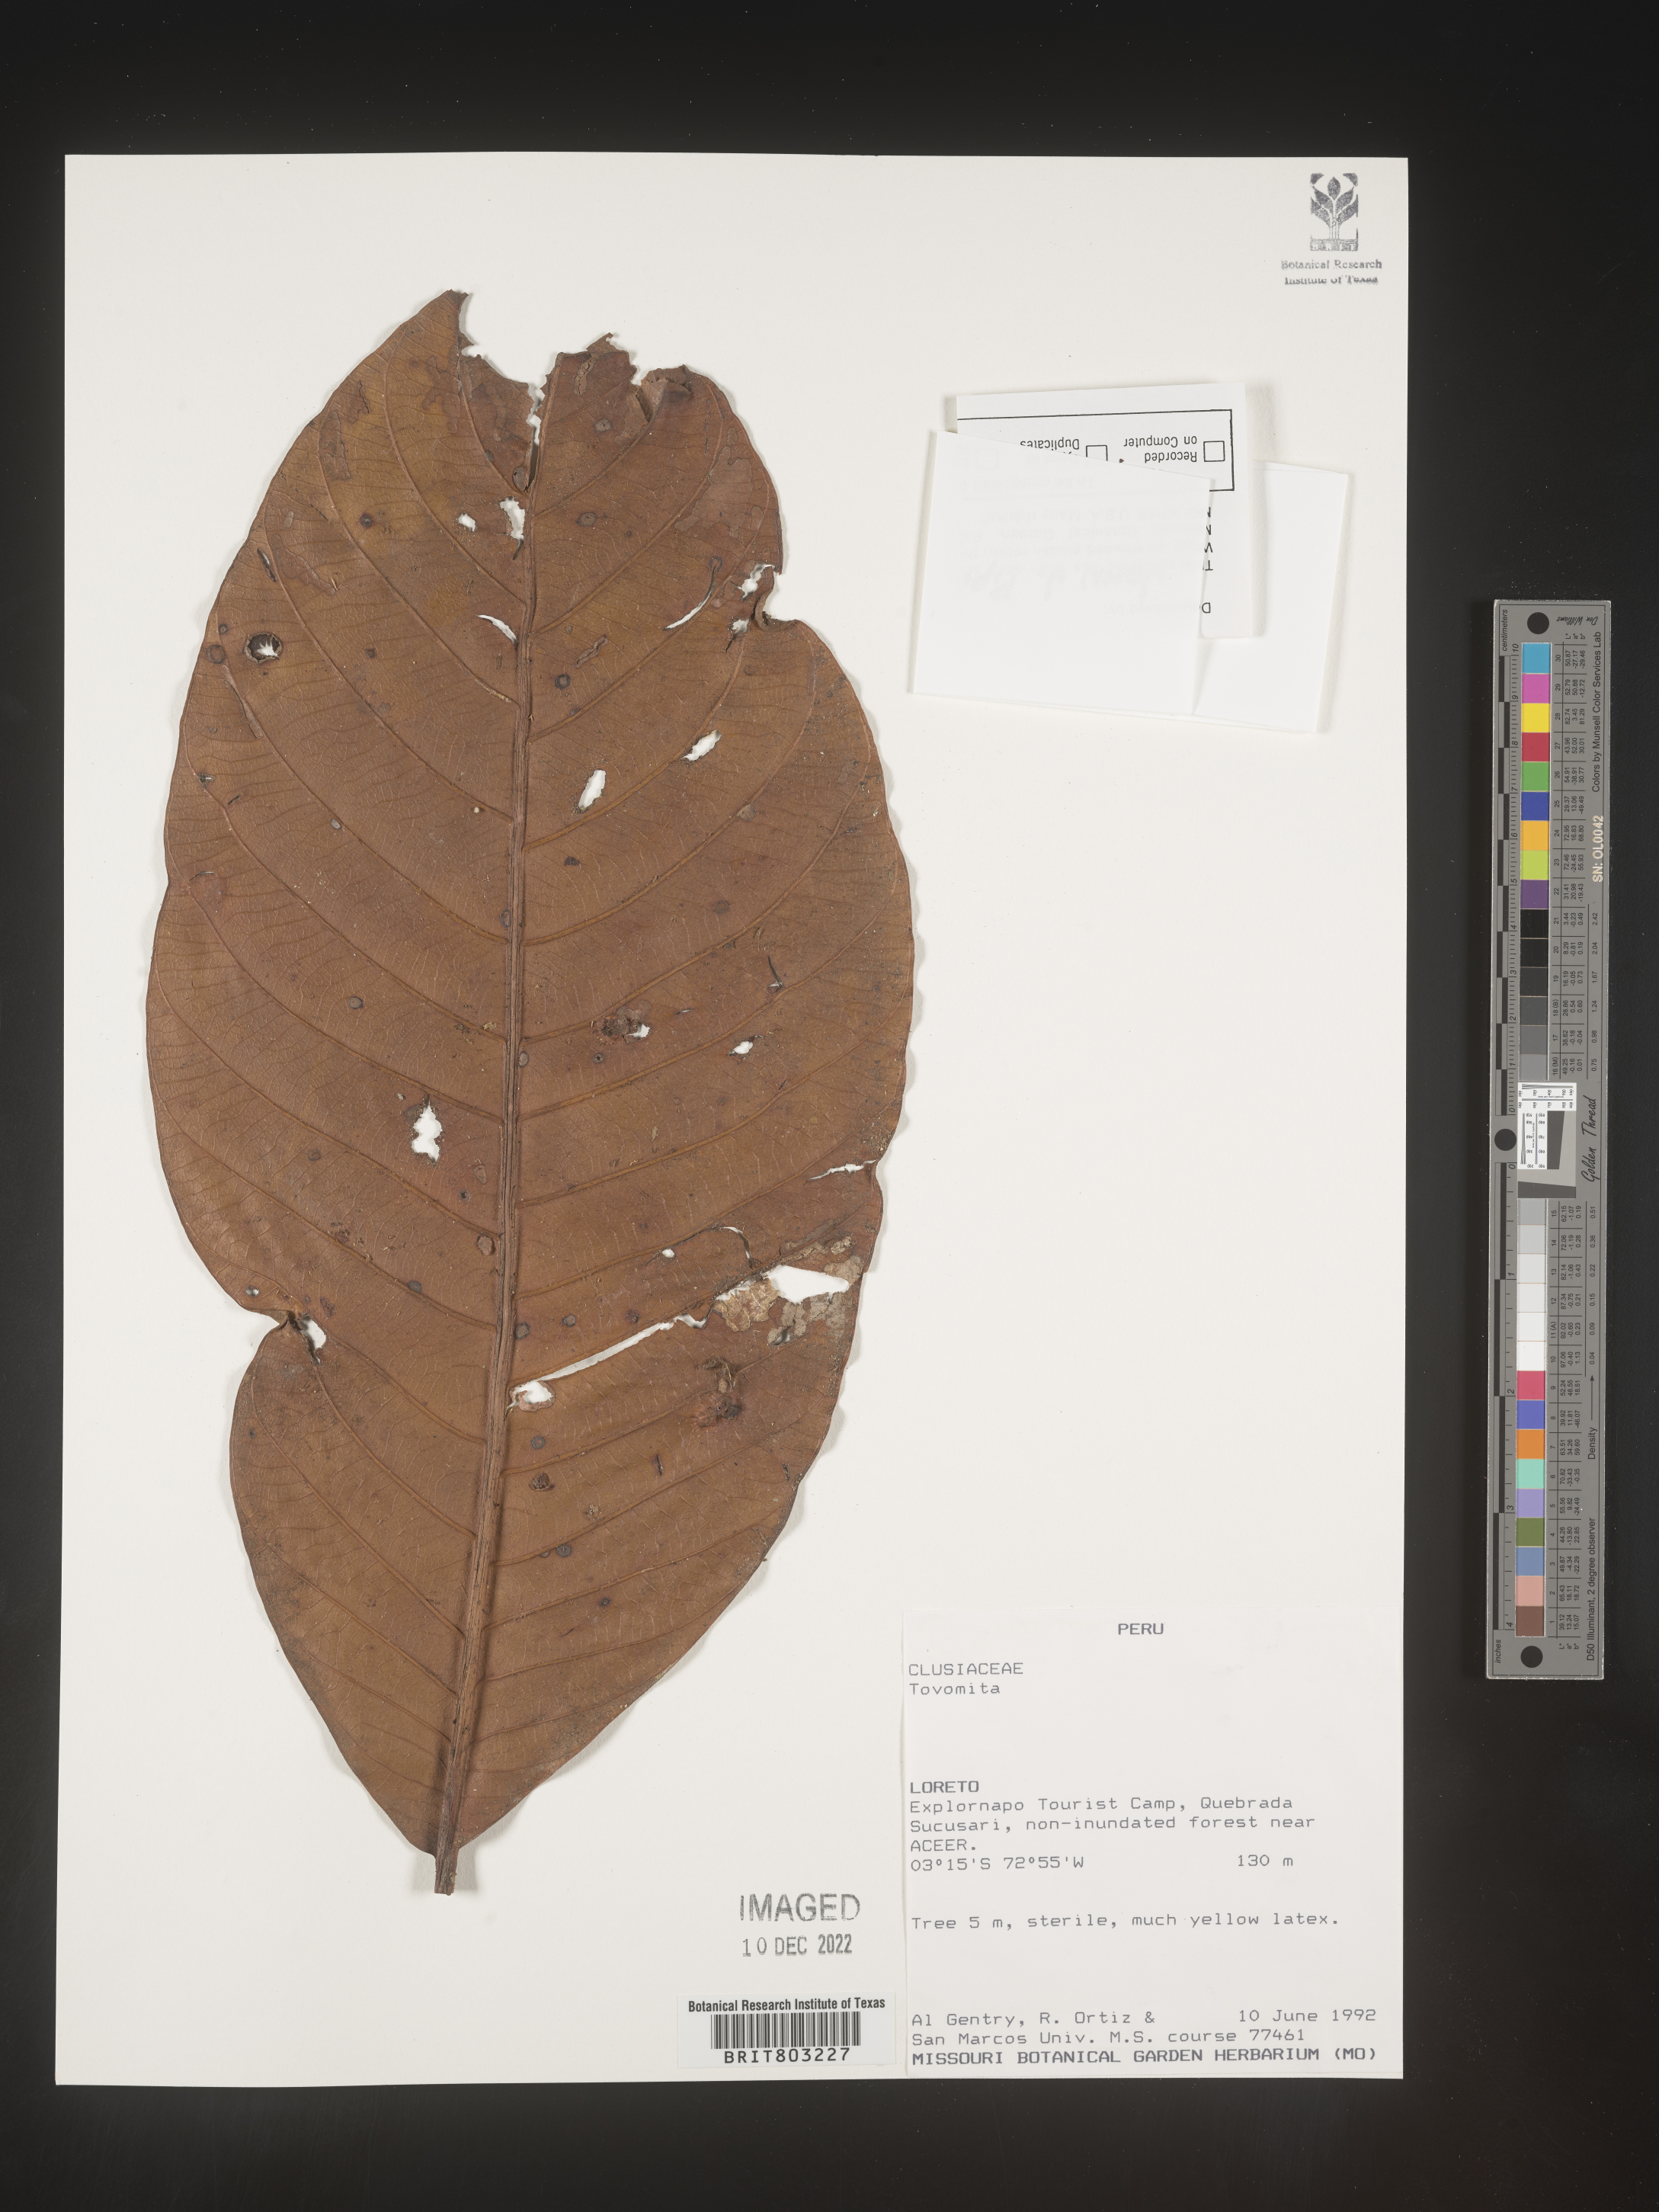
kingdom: Plantae
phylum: Tracheophyta
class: Magnoliopsida
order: Malpighiales
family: Clusiaceae
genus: Tovomita
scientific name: Tovomita
